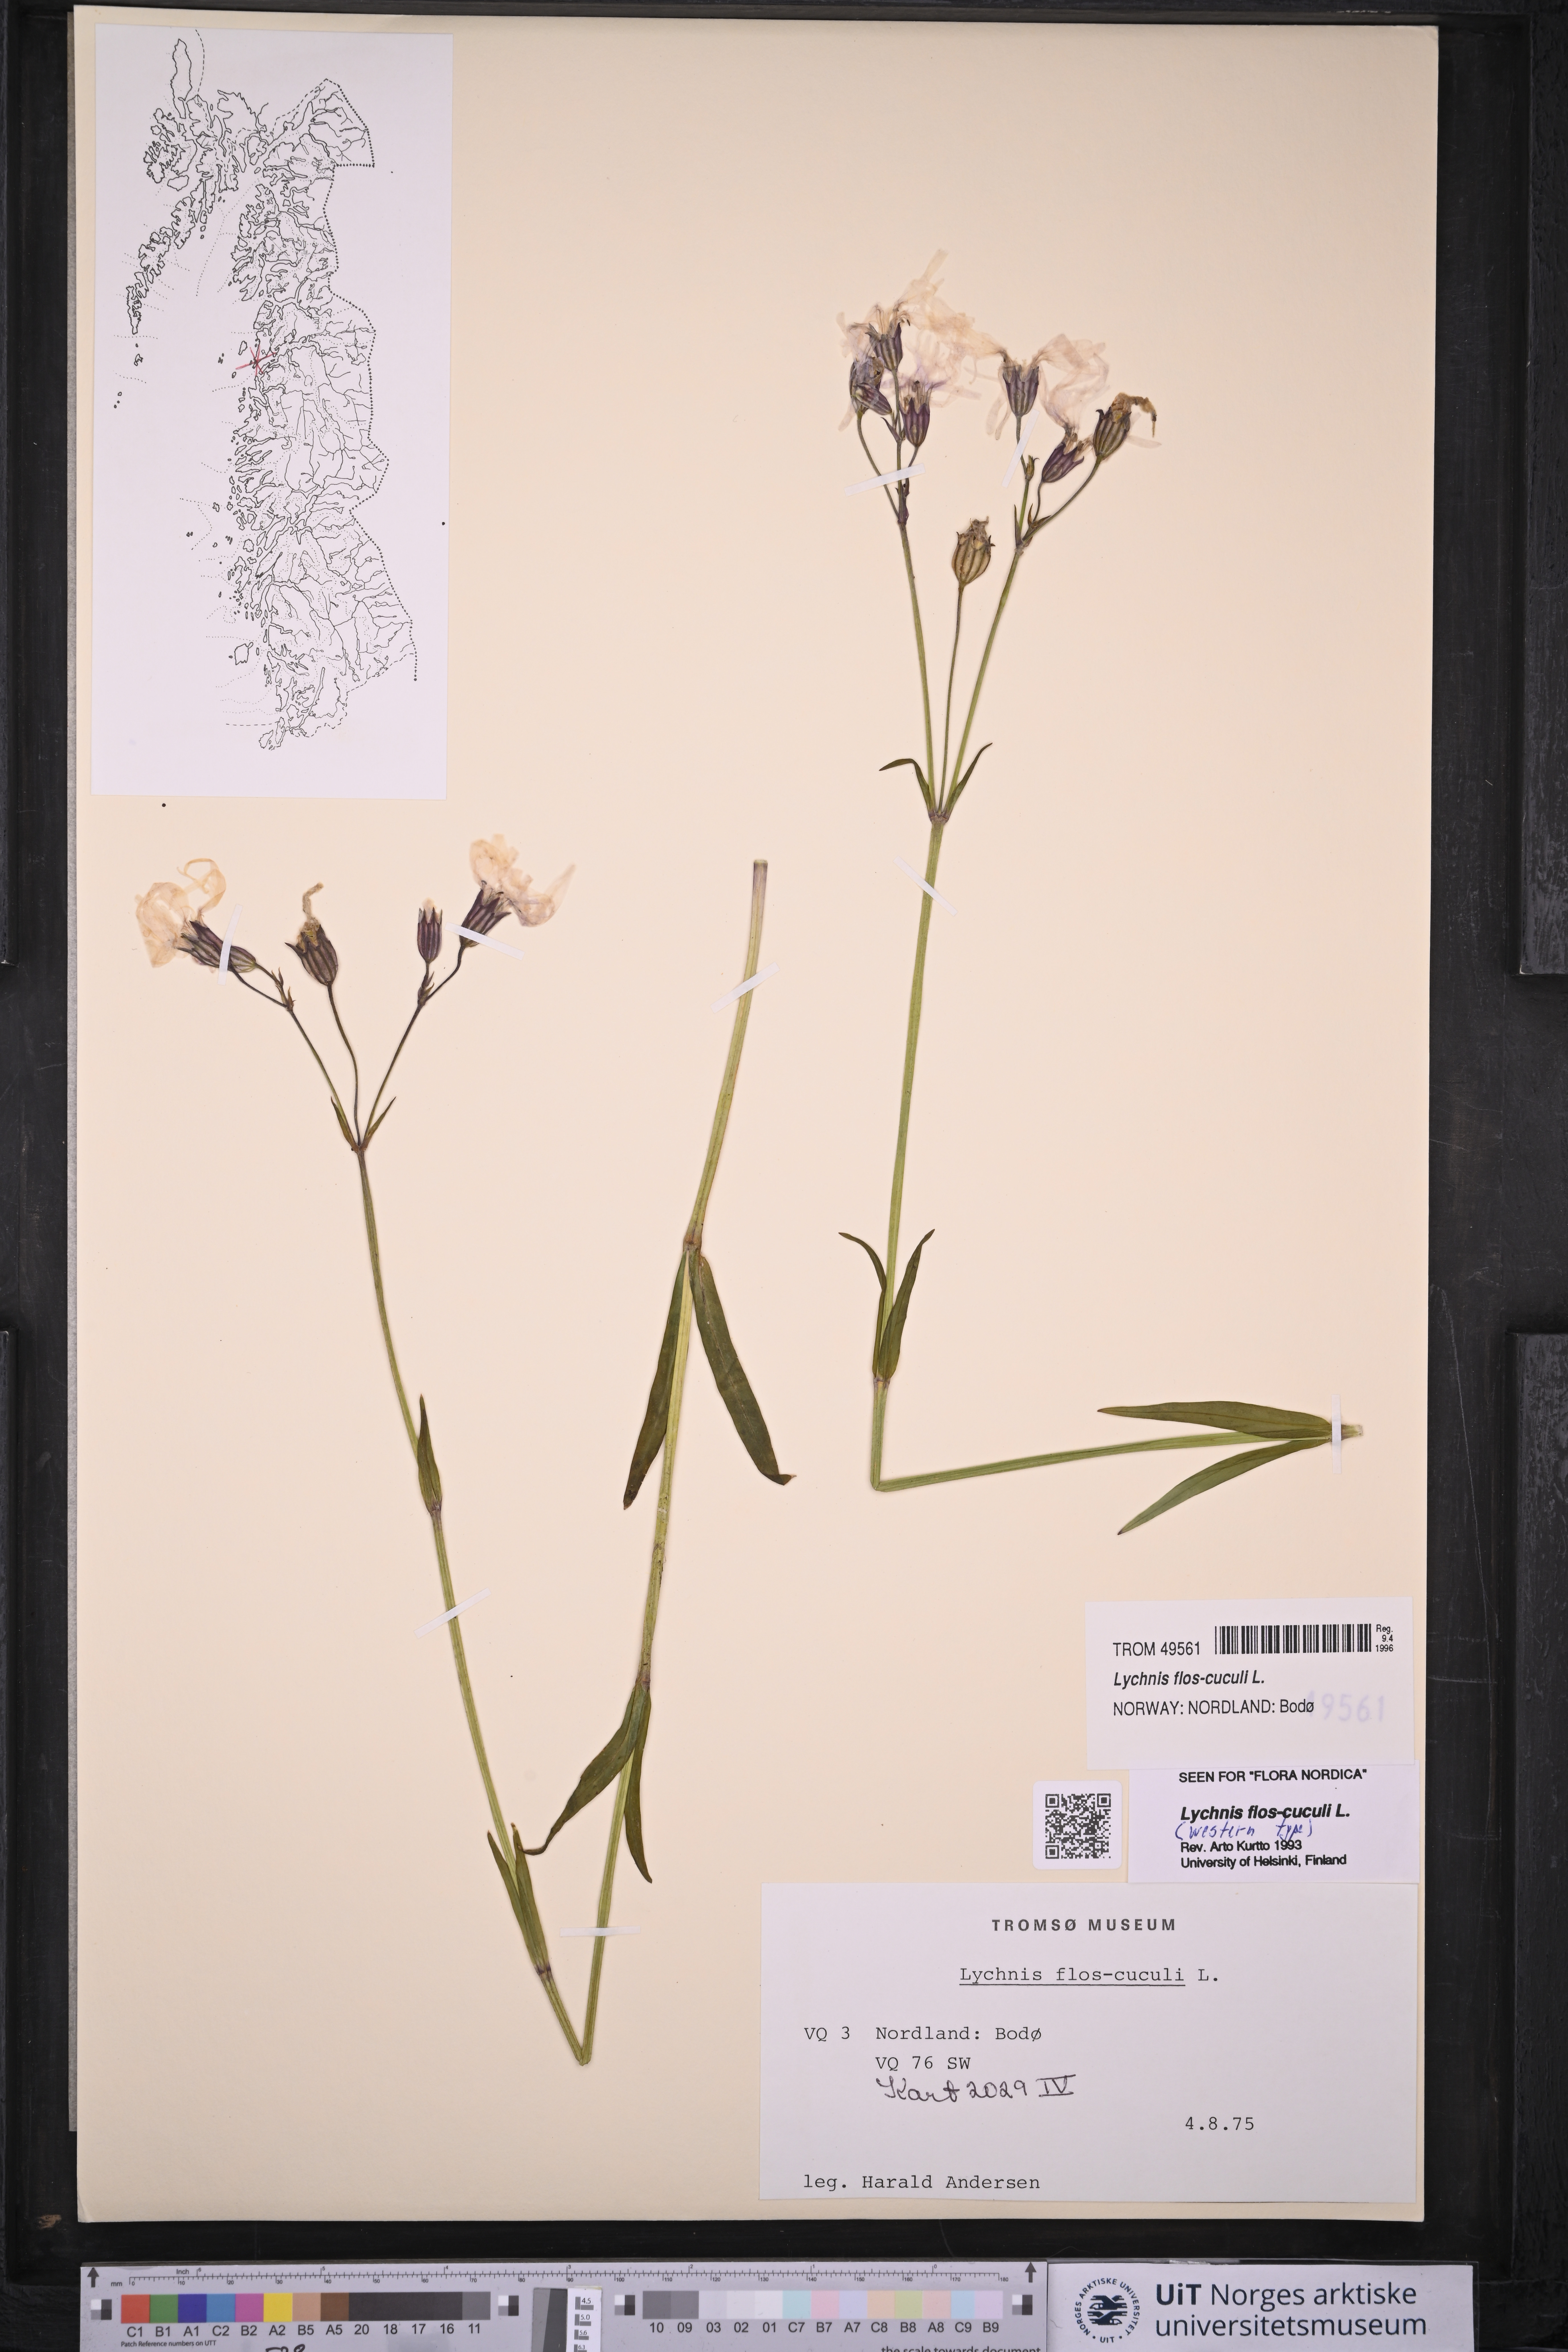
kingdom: Plantae
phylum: Tracheophyta
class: Magnoliopsida
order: Caryophyllales
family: Caryophyllaceae
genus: Silene
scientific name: Silene flos-cuculi
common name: Ragged-robin
